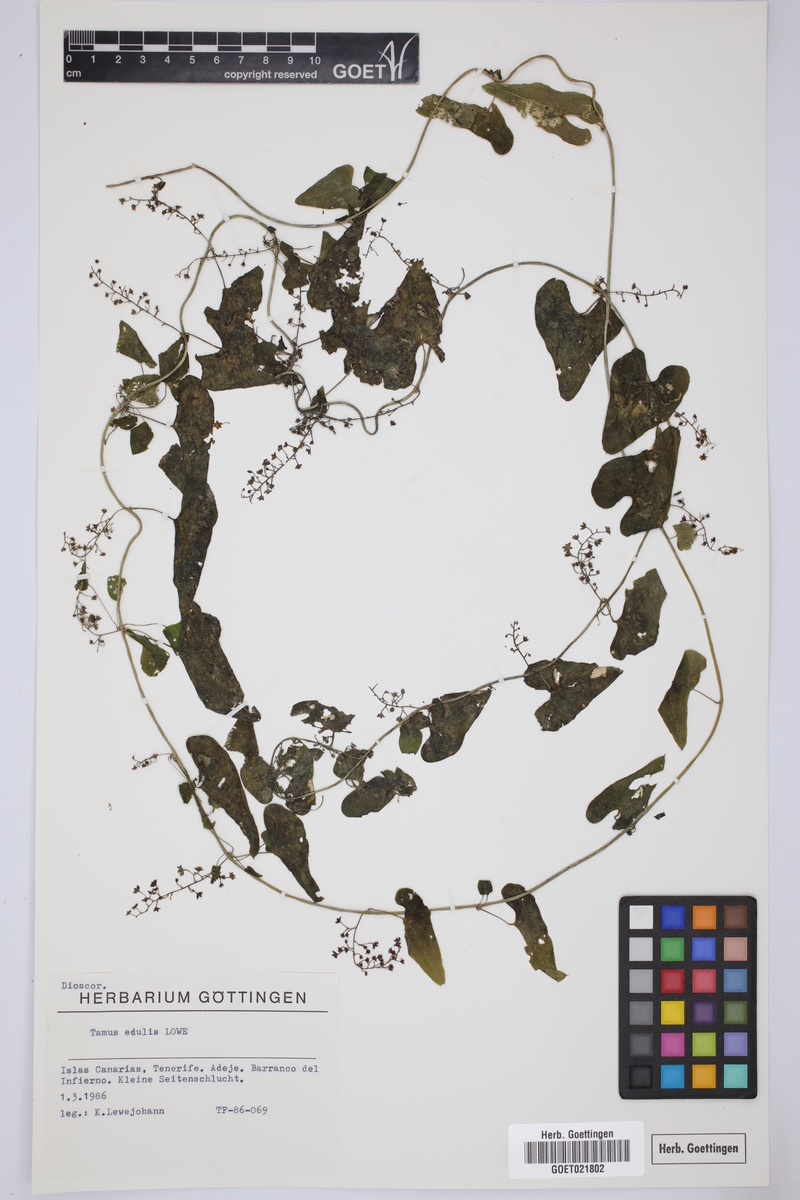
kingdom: Plantae
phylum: Tracheophyta
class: Liliopsida
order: Dioscoreales
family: Dioscoreaceae
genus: Dioscorea
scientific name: Dioscorea communis
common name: Black-bindweed
